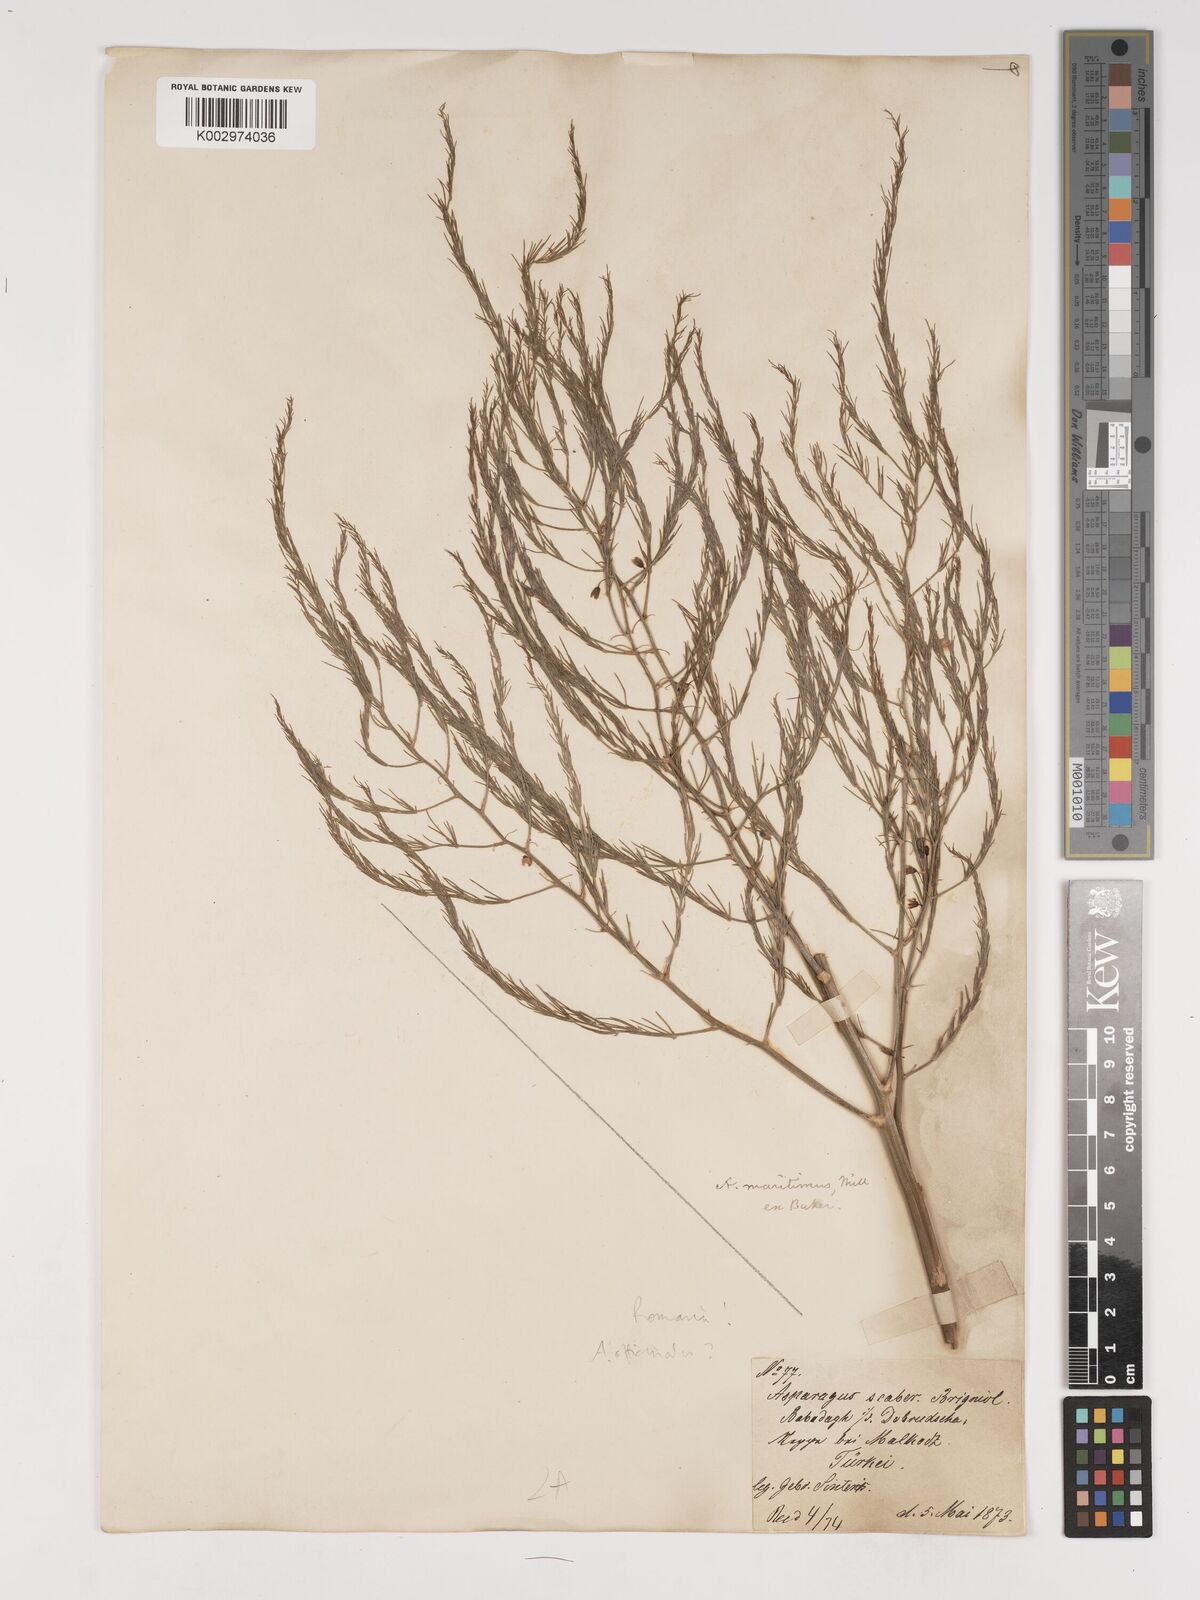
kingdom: Plantae
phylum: Tracheophyta
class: Liliopsida
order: Asparagales
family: Asparagaceae
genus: Asparagus
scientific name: Asparagus maritimus
